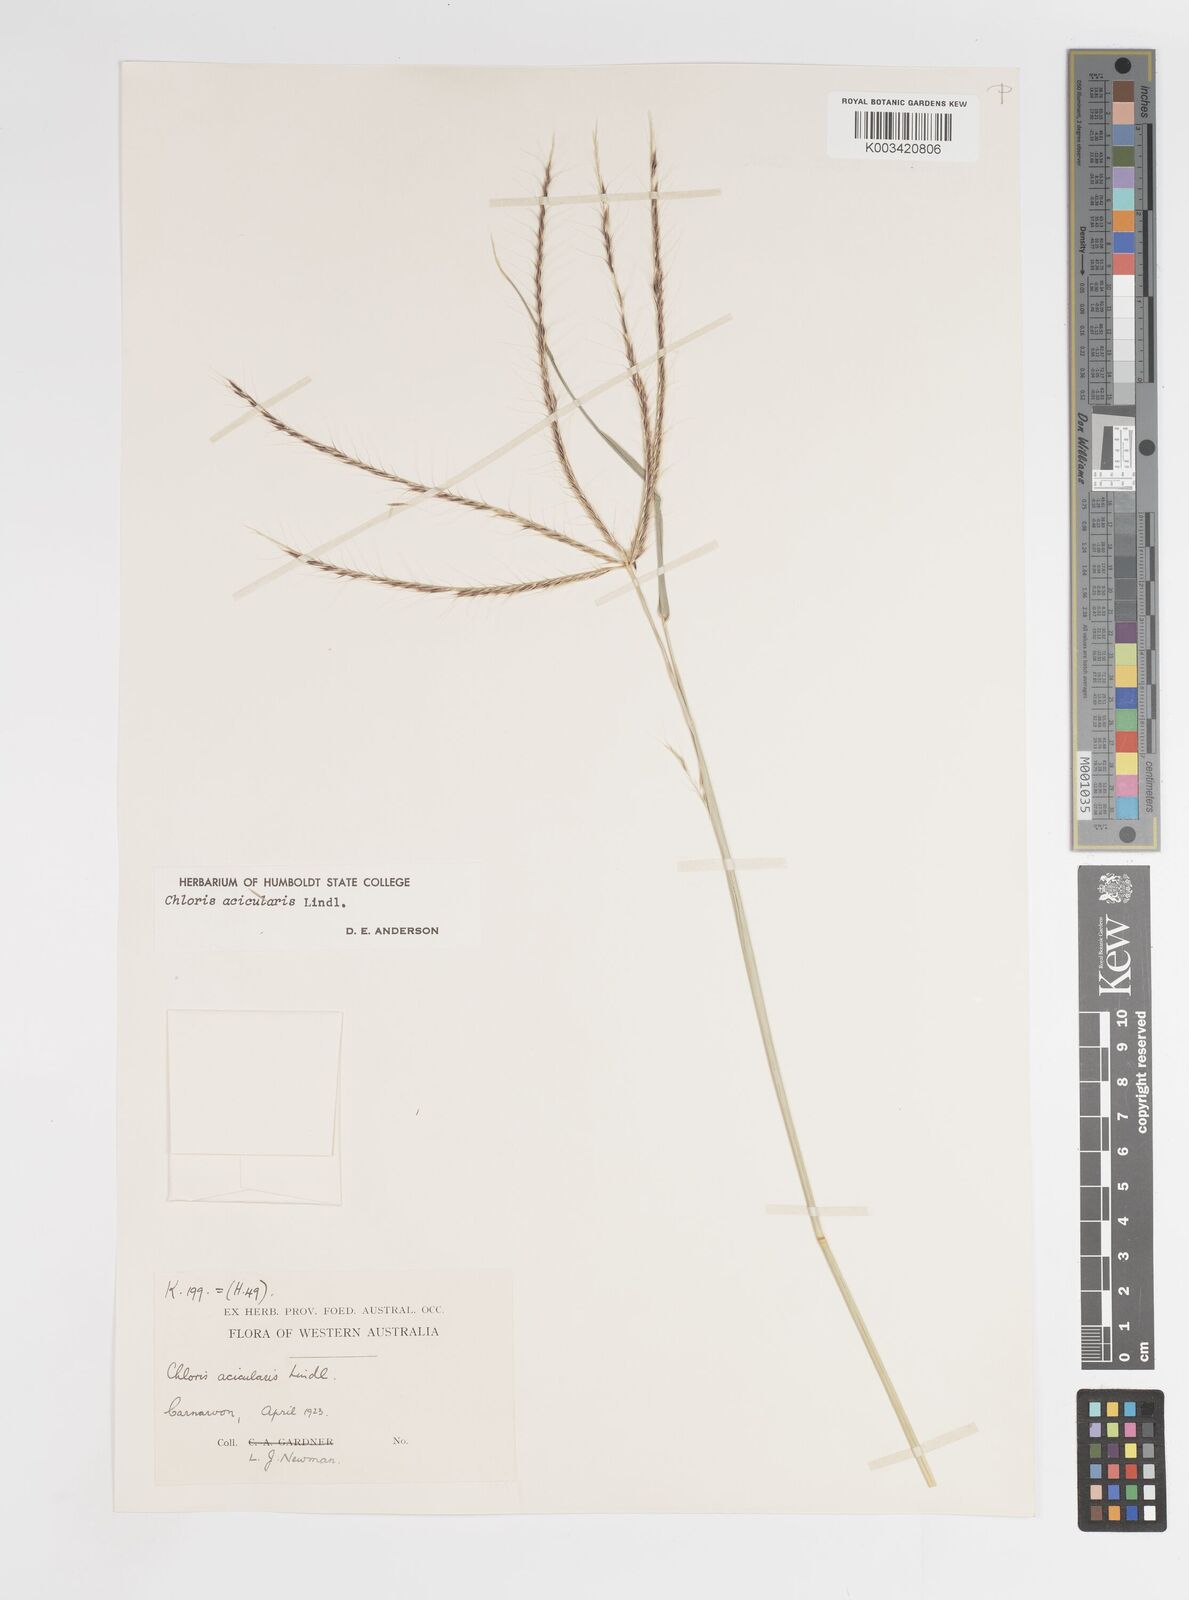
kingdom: Plantae
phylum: Tracheophyta
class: Liliopsida
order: Poales
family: Poaceae
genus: Enteropogon
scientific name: Enteropogon acicularis
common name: Curly windmill grass
